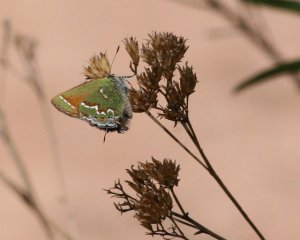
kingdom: Animalia
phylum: Arthropoda
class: Insecta
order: Lepidoptera
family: Lycaenidae
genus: Mitoura
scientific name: Mitoura gryneus
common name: Juniper Hairstreak
